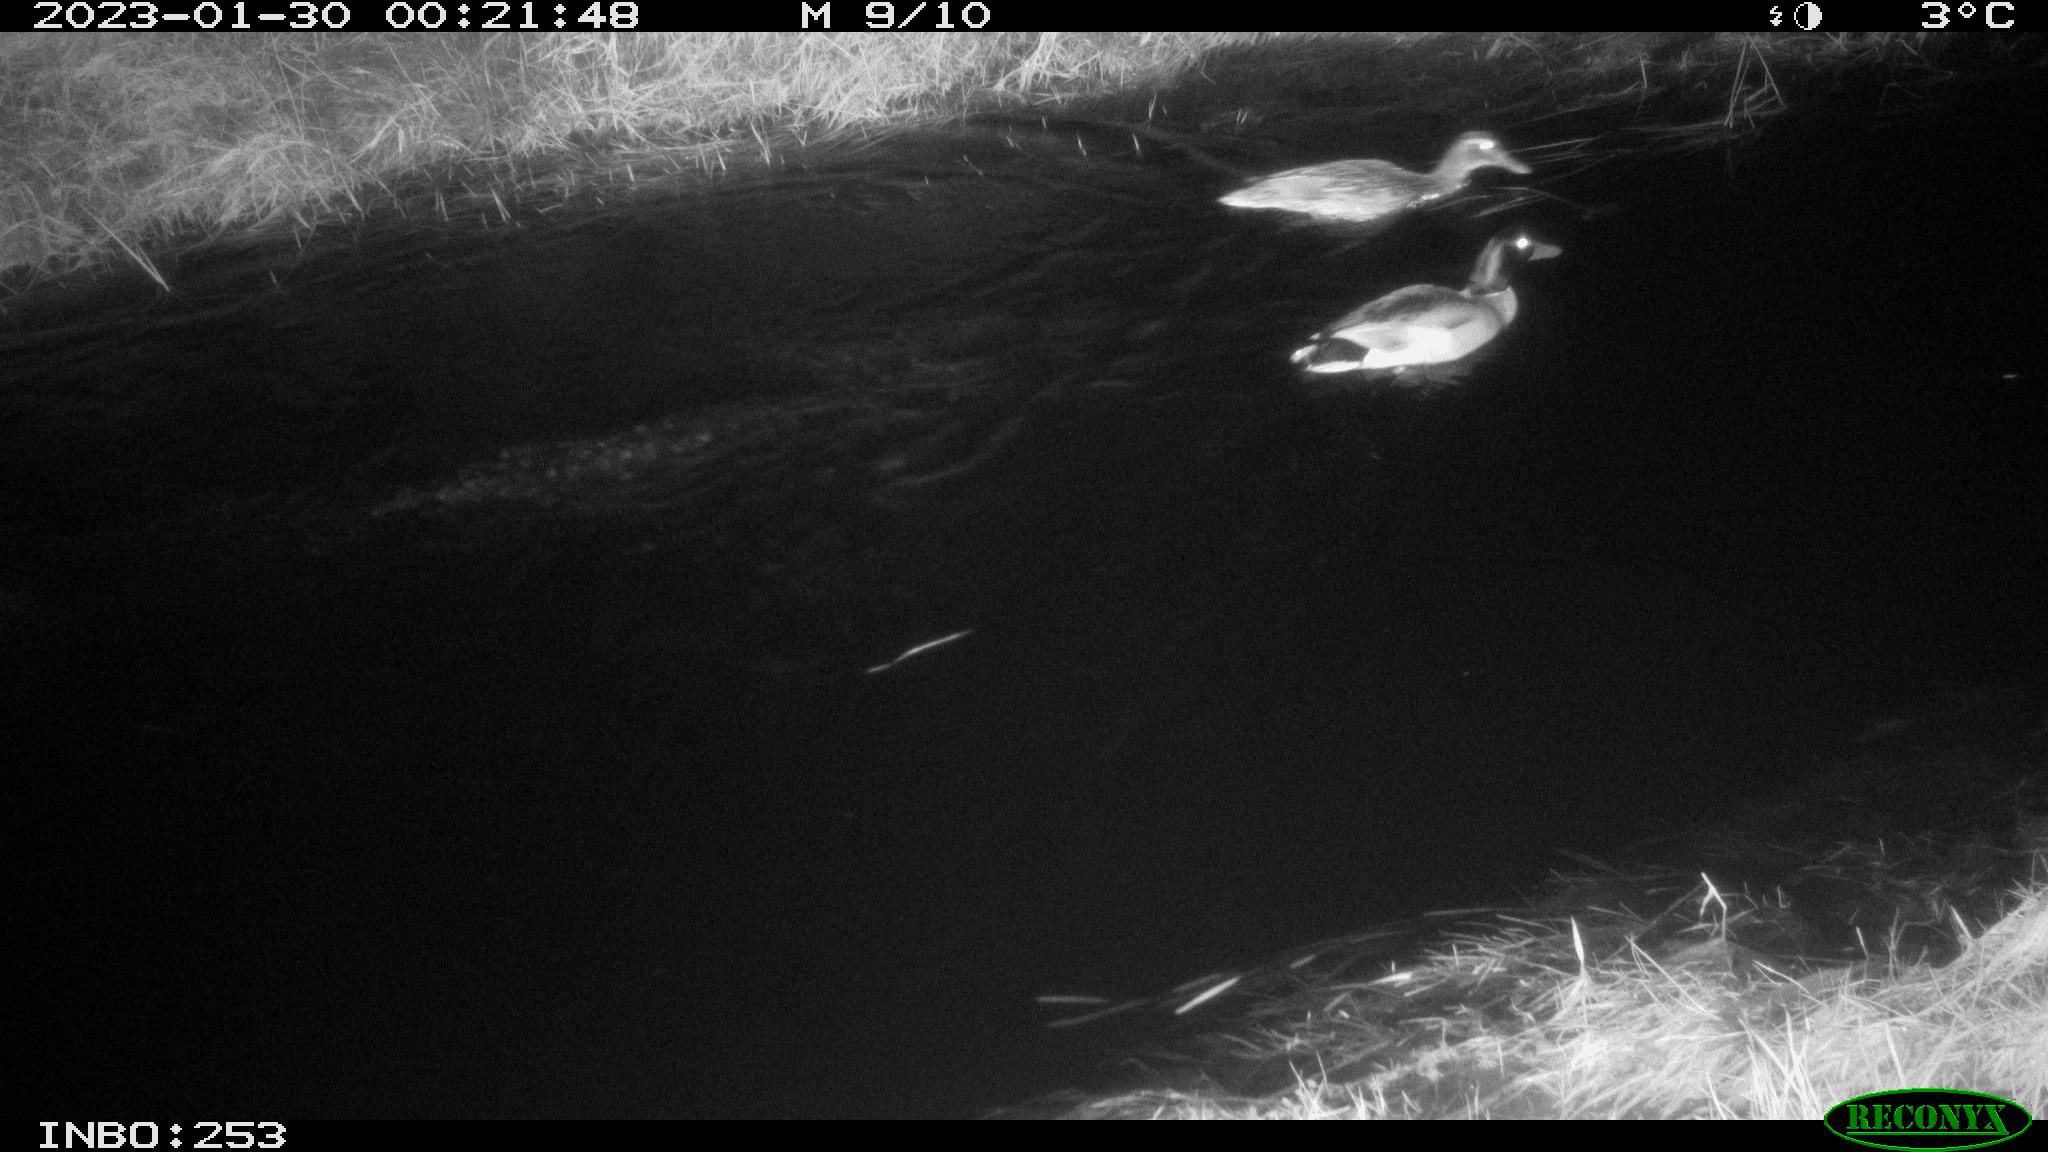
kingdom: Animalia
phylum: Chordata
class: Aves
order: Anseriformes
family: Anatidae
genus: Anas
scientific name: Anas
